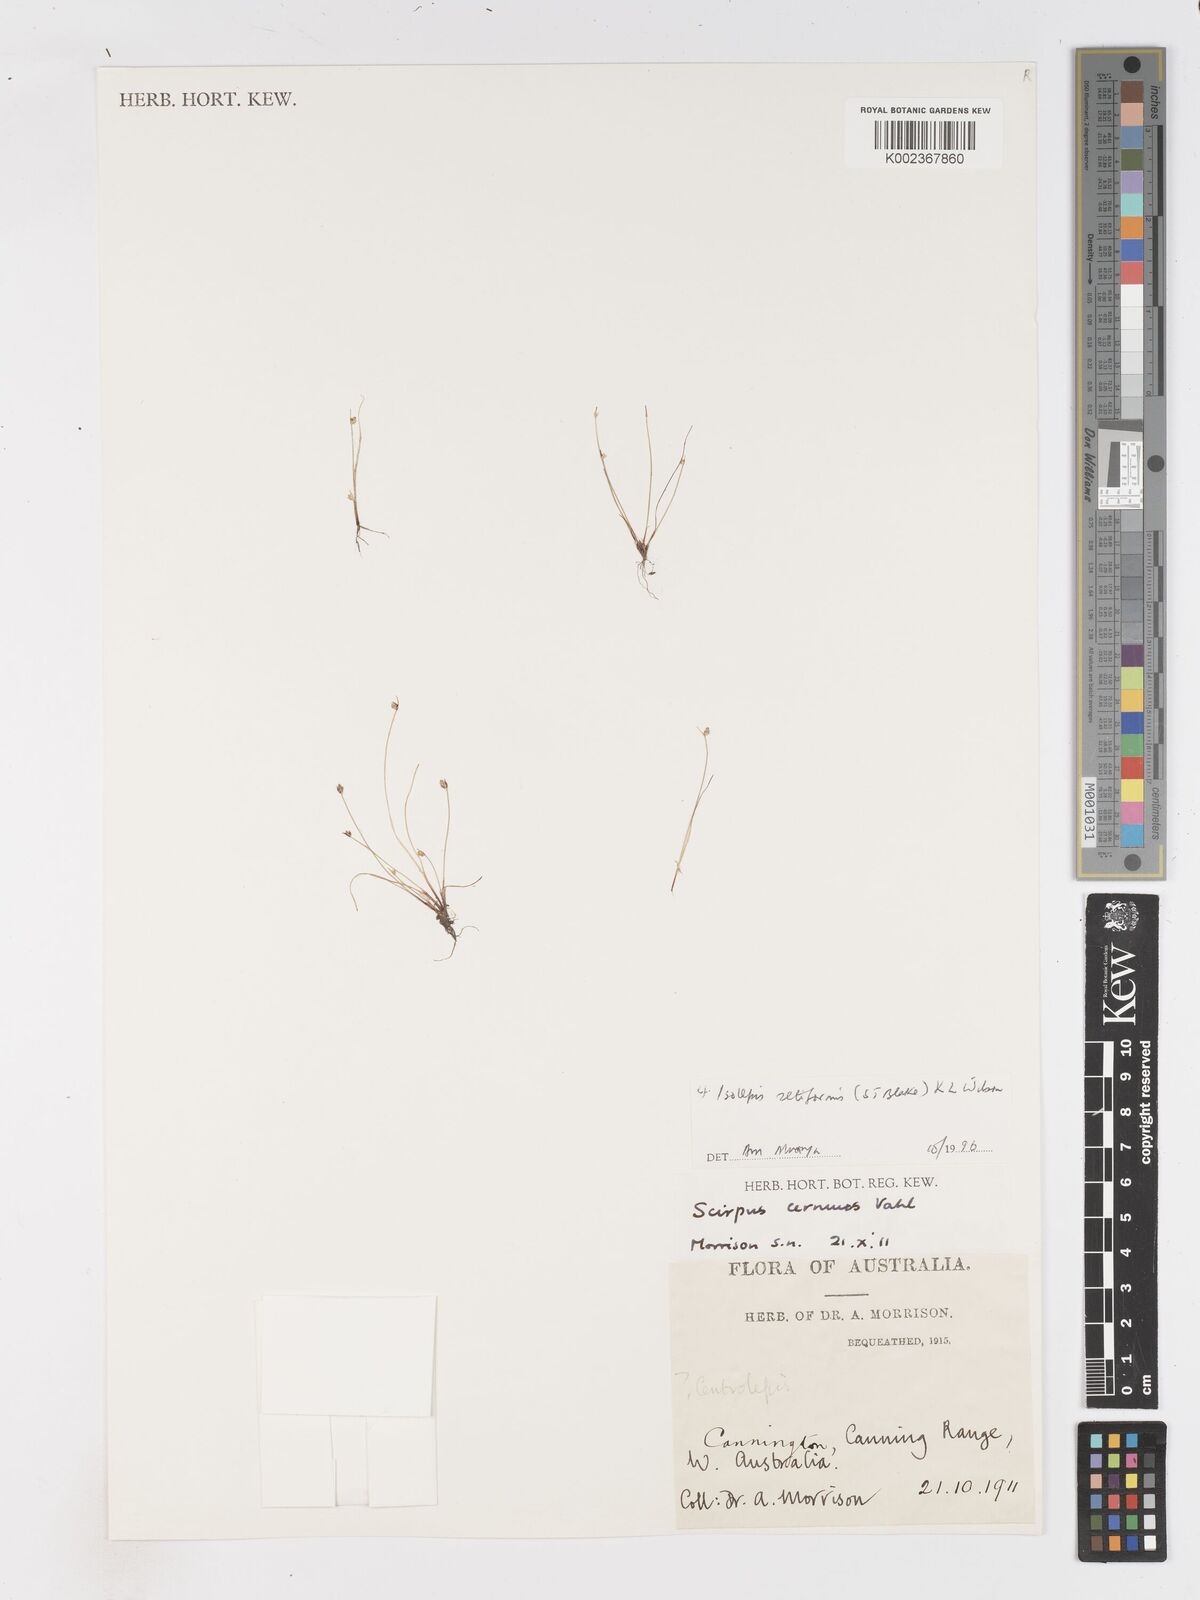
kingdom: Plantae
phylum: Tracheophyta
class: Liliopsida
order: Poales
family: Cyperaceae
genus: Isolepis
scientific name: Isolepis cernua
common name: Slender club-rush
